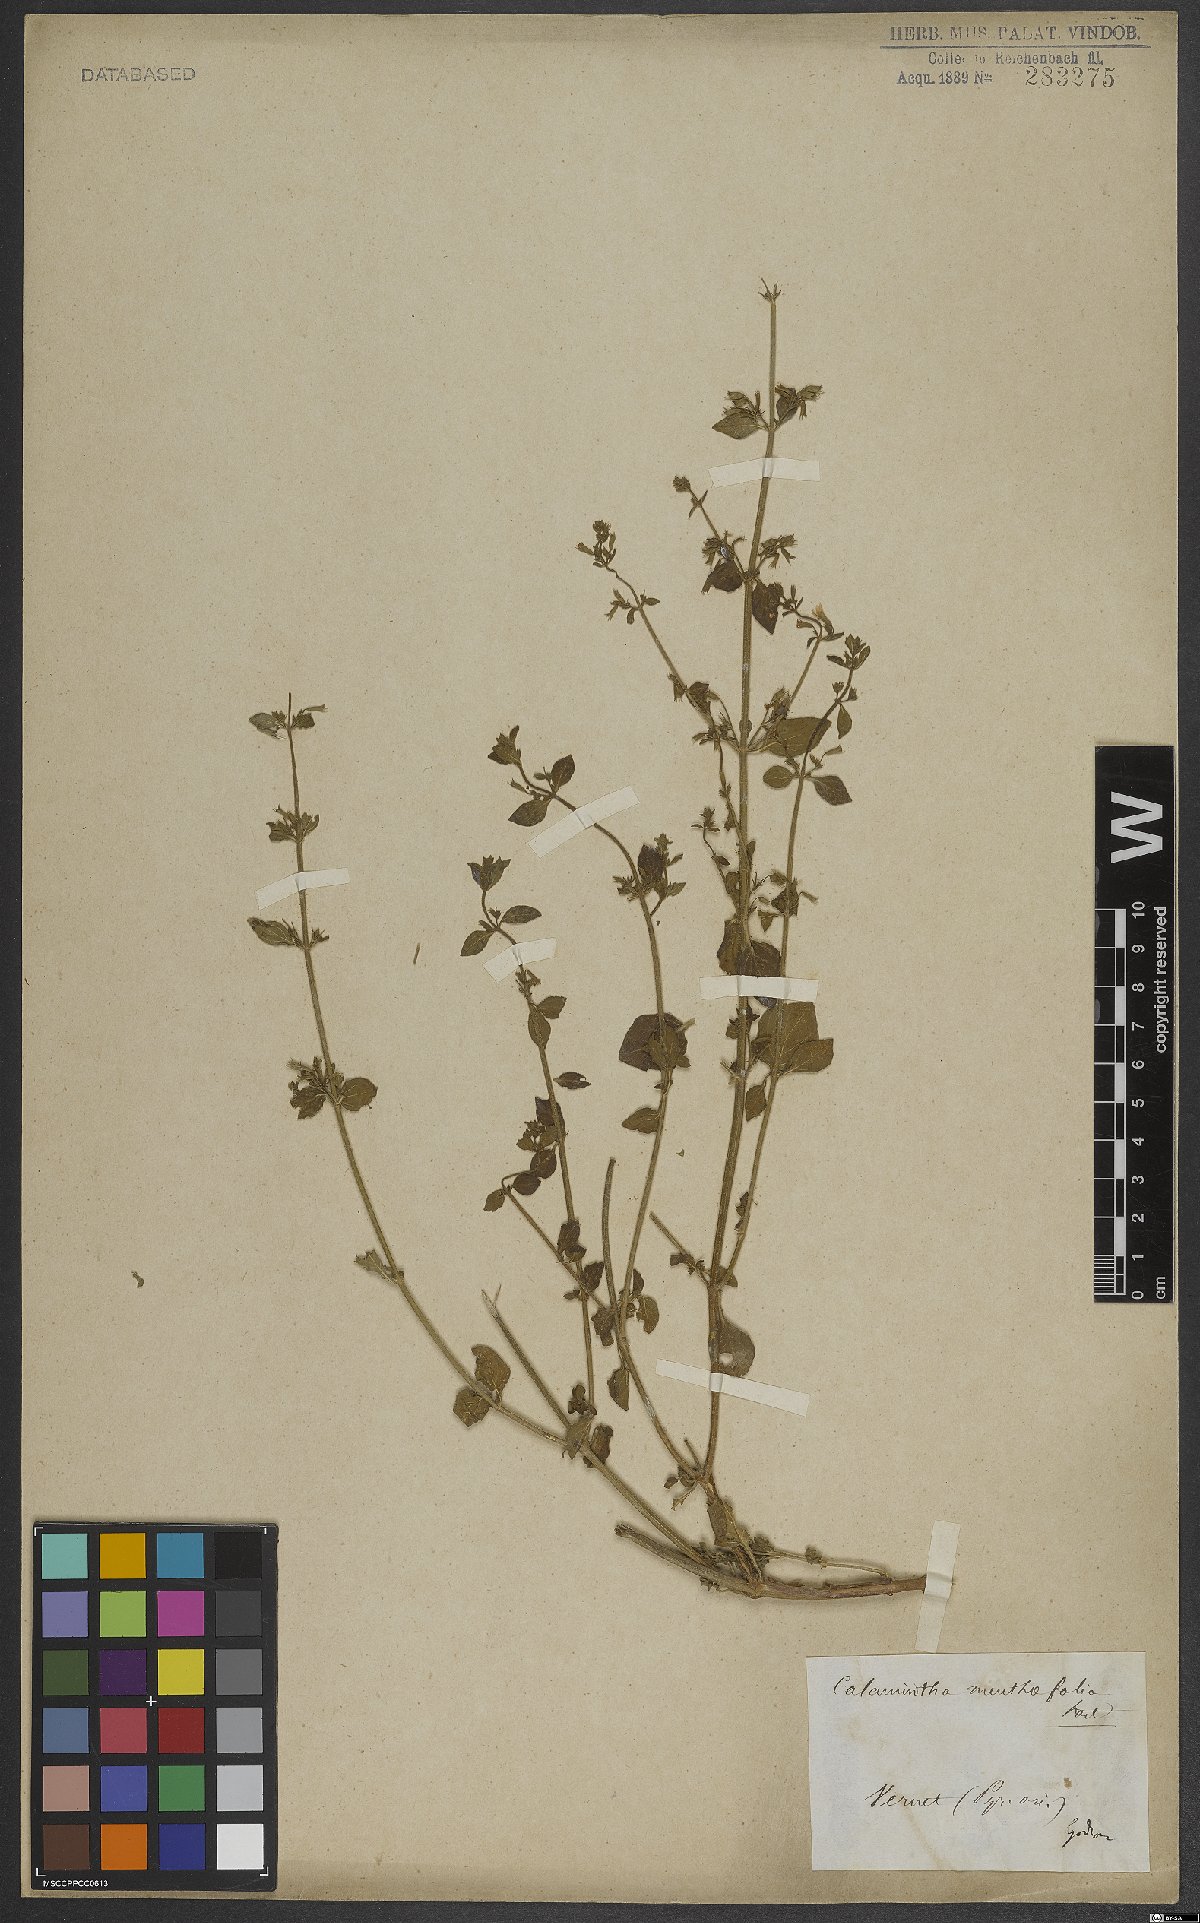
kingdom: Plantae
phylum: Tracheophyta
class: Magnoliopsida
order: Lamiales
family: Lamiaceae
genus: Calamintha
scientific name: Calamintha
